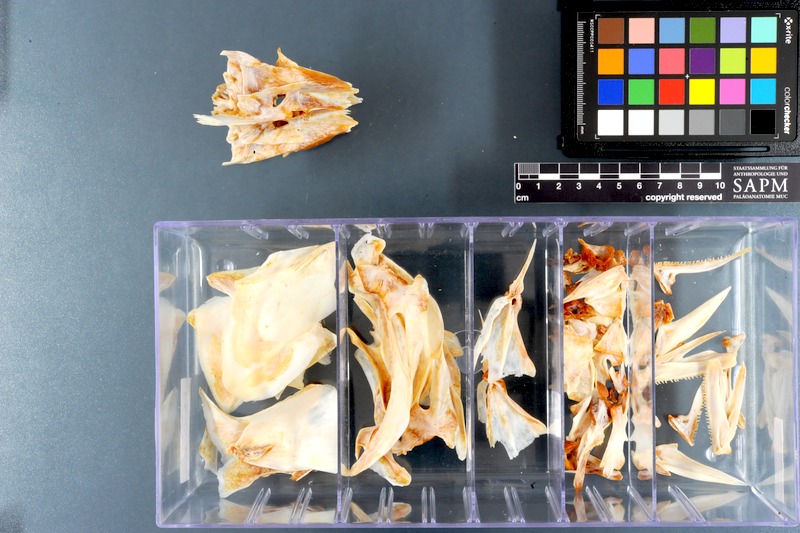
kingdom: Animalia
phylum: Chordata
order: Perciformes
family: Scombridae
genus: Euthynnus
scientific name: Euthynnus affinis
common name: Mackerel tuna
